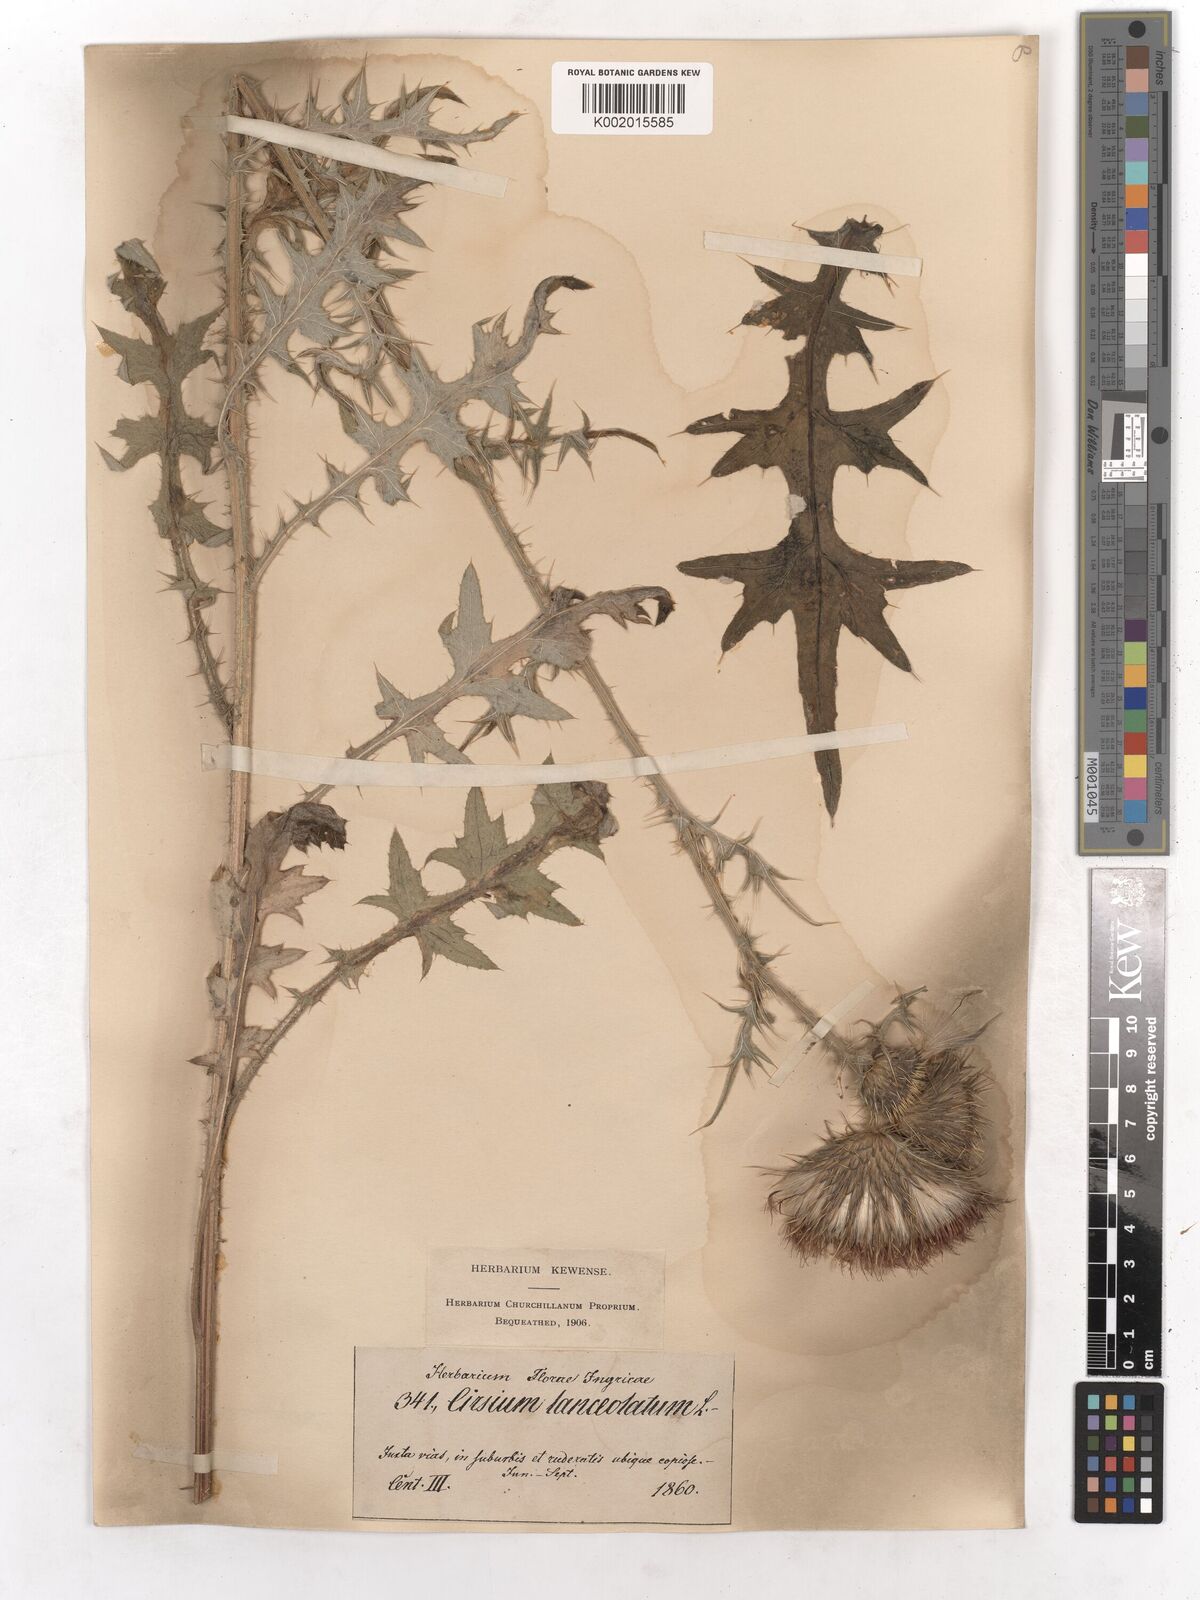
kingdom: Plantae
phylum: Tracheophyta
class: Magnoliopsida
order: Asterales
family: Asteraceae
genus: Cirsium
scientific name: Cirsium vulgare
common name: Bull thistle
